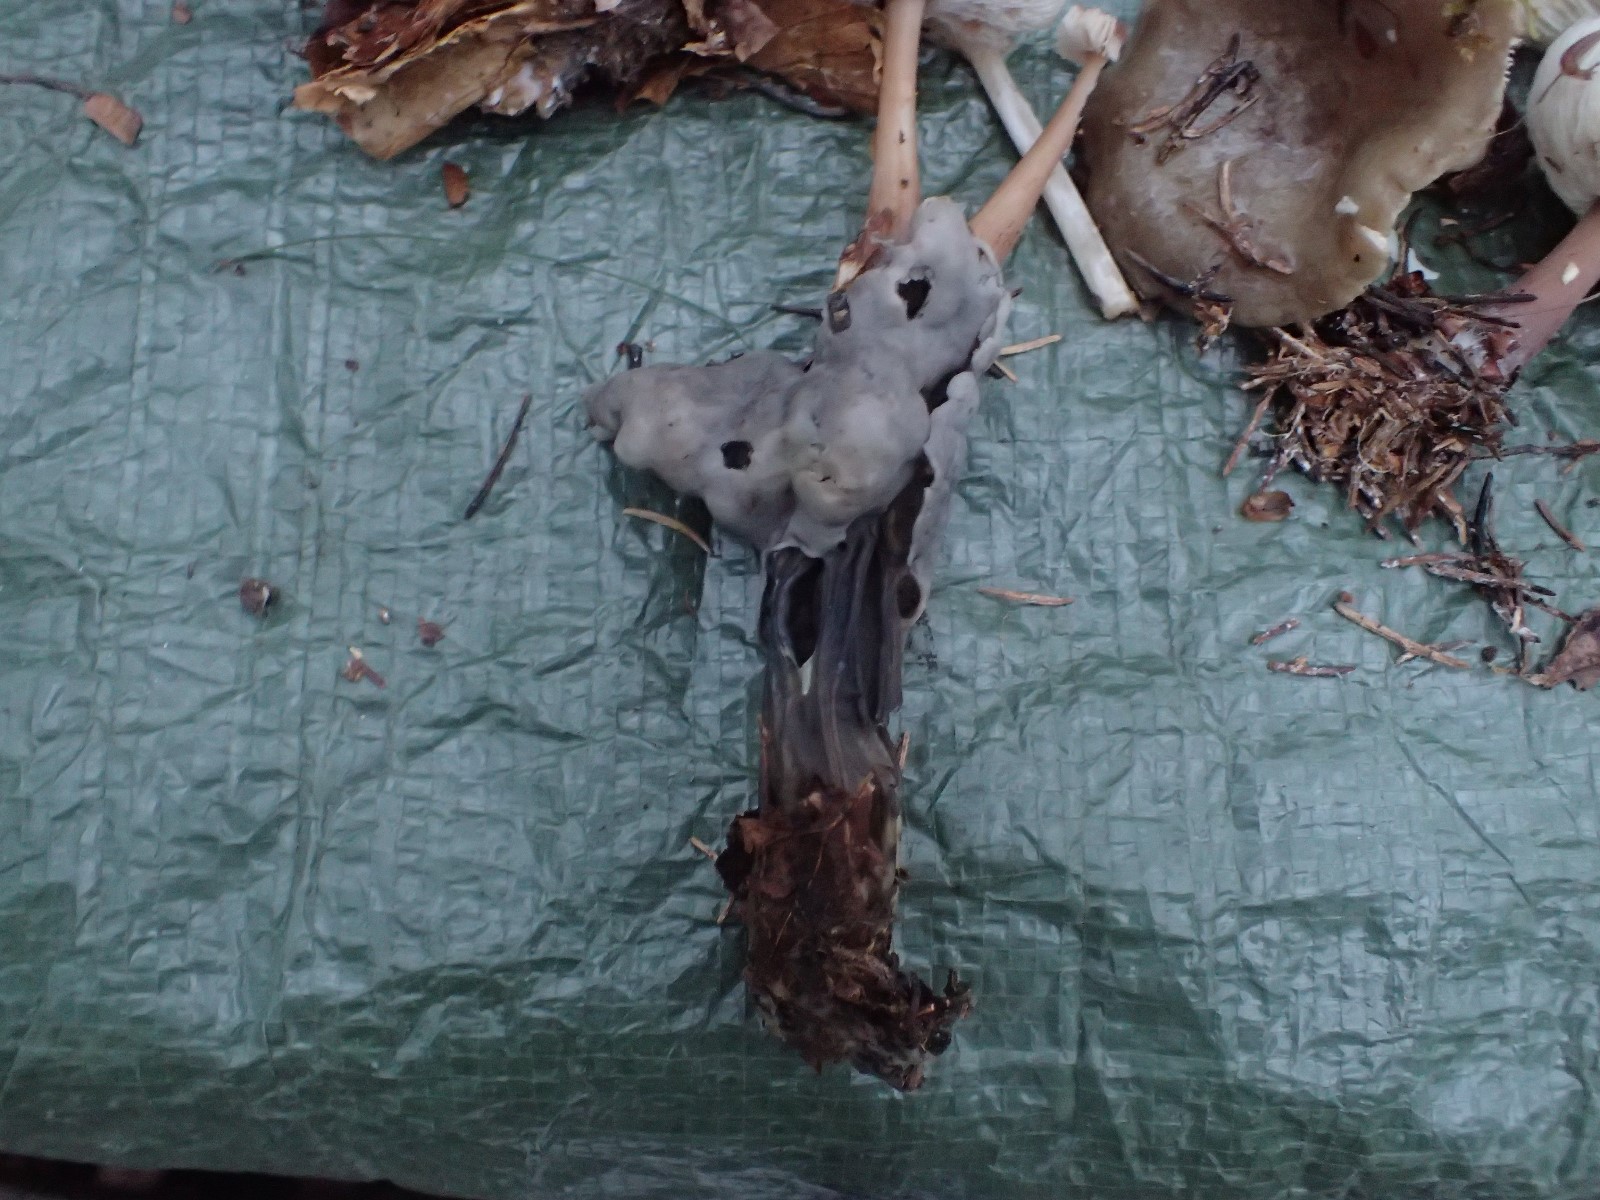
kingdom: Fungi
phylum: Ascomycota
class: Pezizomycetes
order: Pezizales
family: Helvellaceae
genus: Helvella
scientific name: Helvella lacunosa
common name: grubet foldhat
